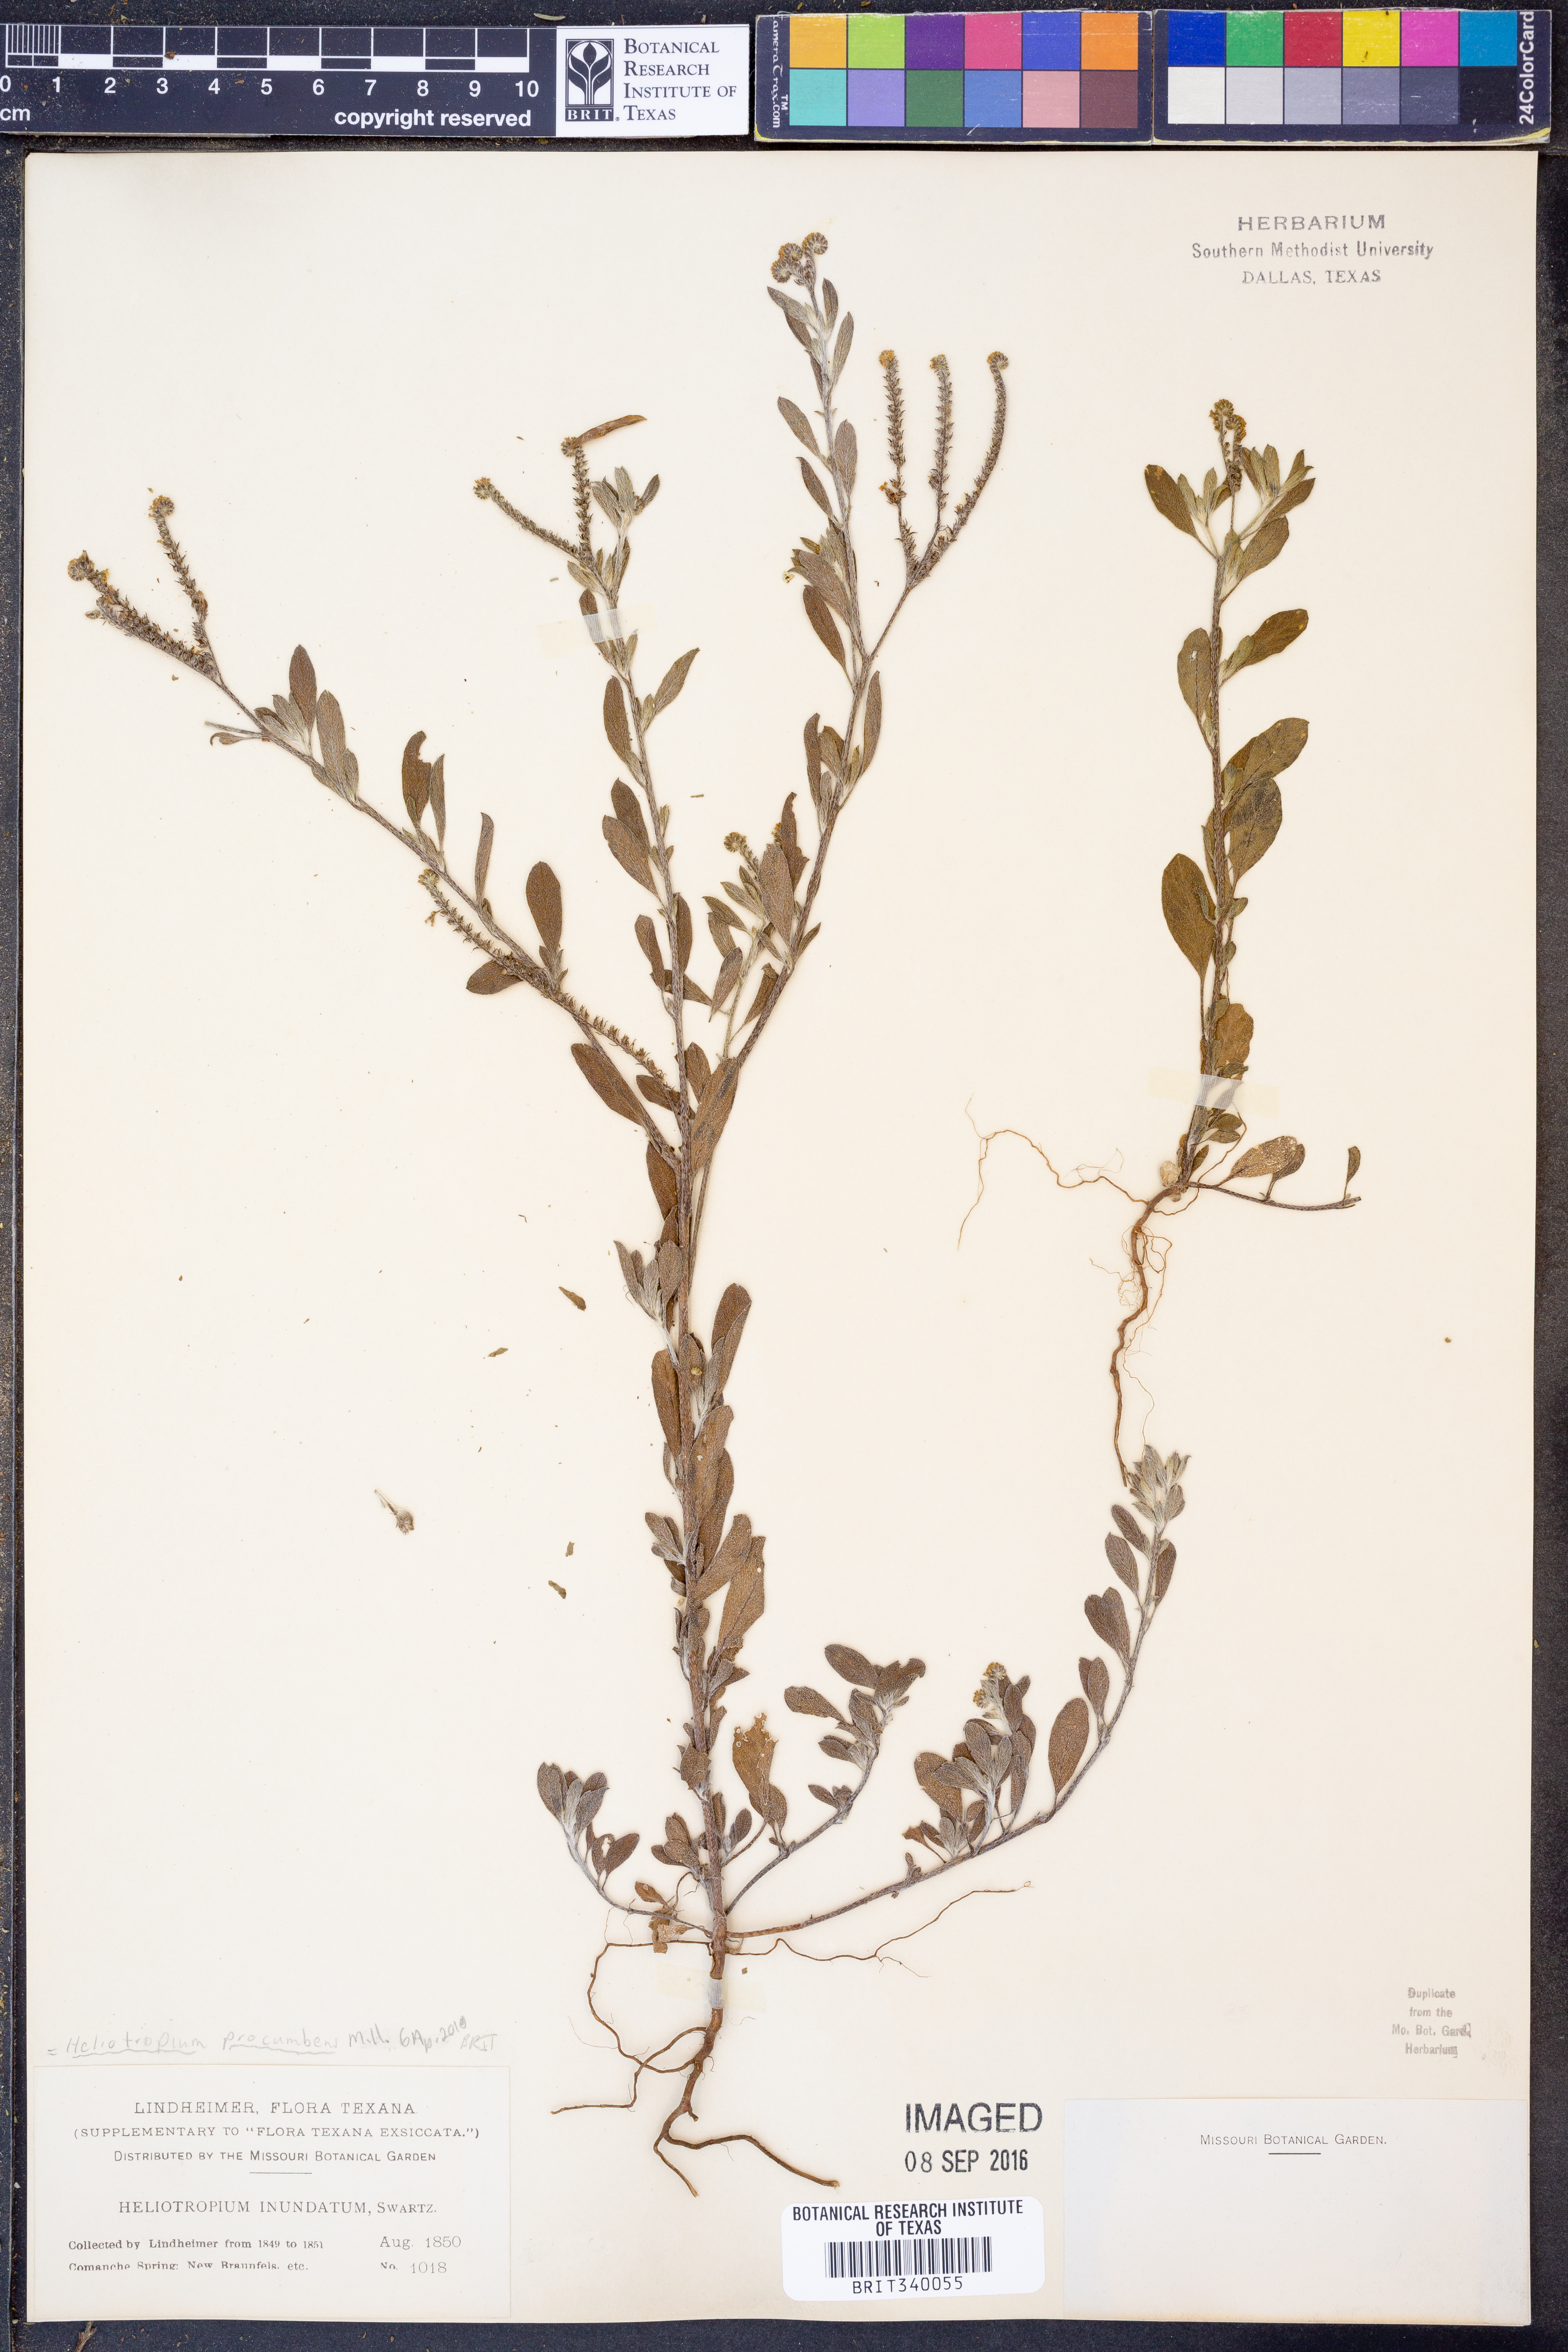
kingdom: Plantae
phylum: Tracheophyta
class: Magnoliopsida
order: Boraginales
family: Heliotropiaceae
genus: Euploca
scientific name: Euploca procumbens
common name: Fourspike heliotrope
